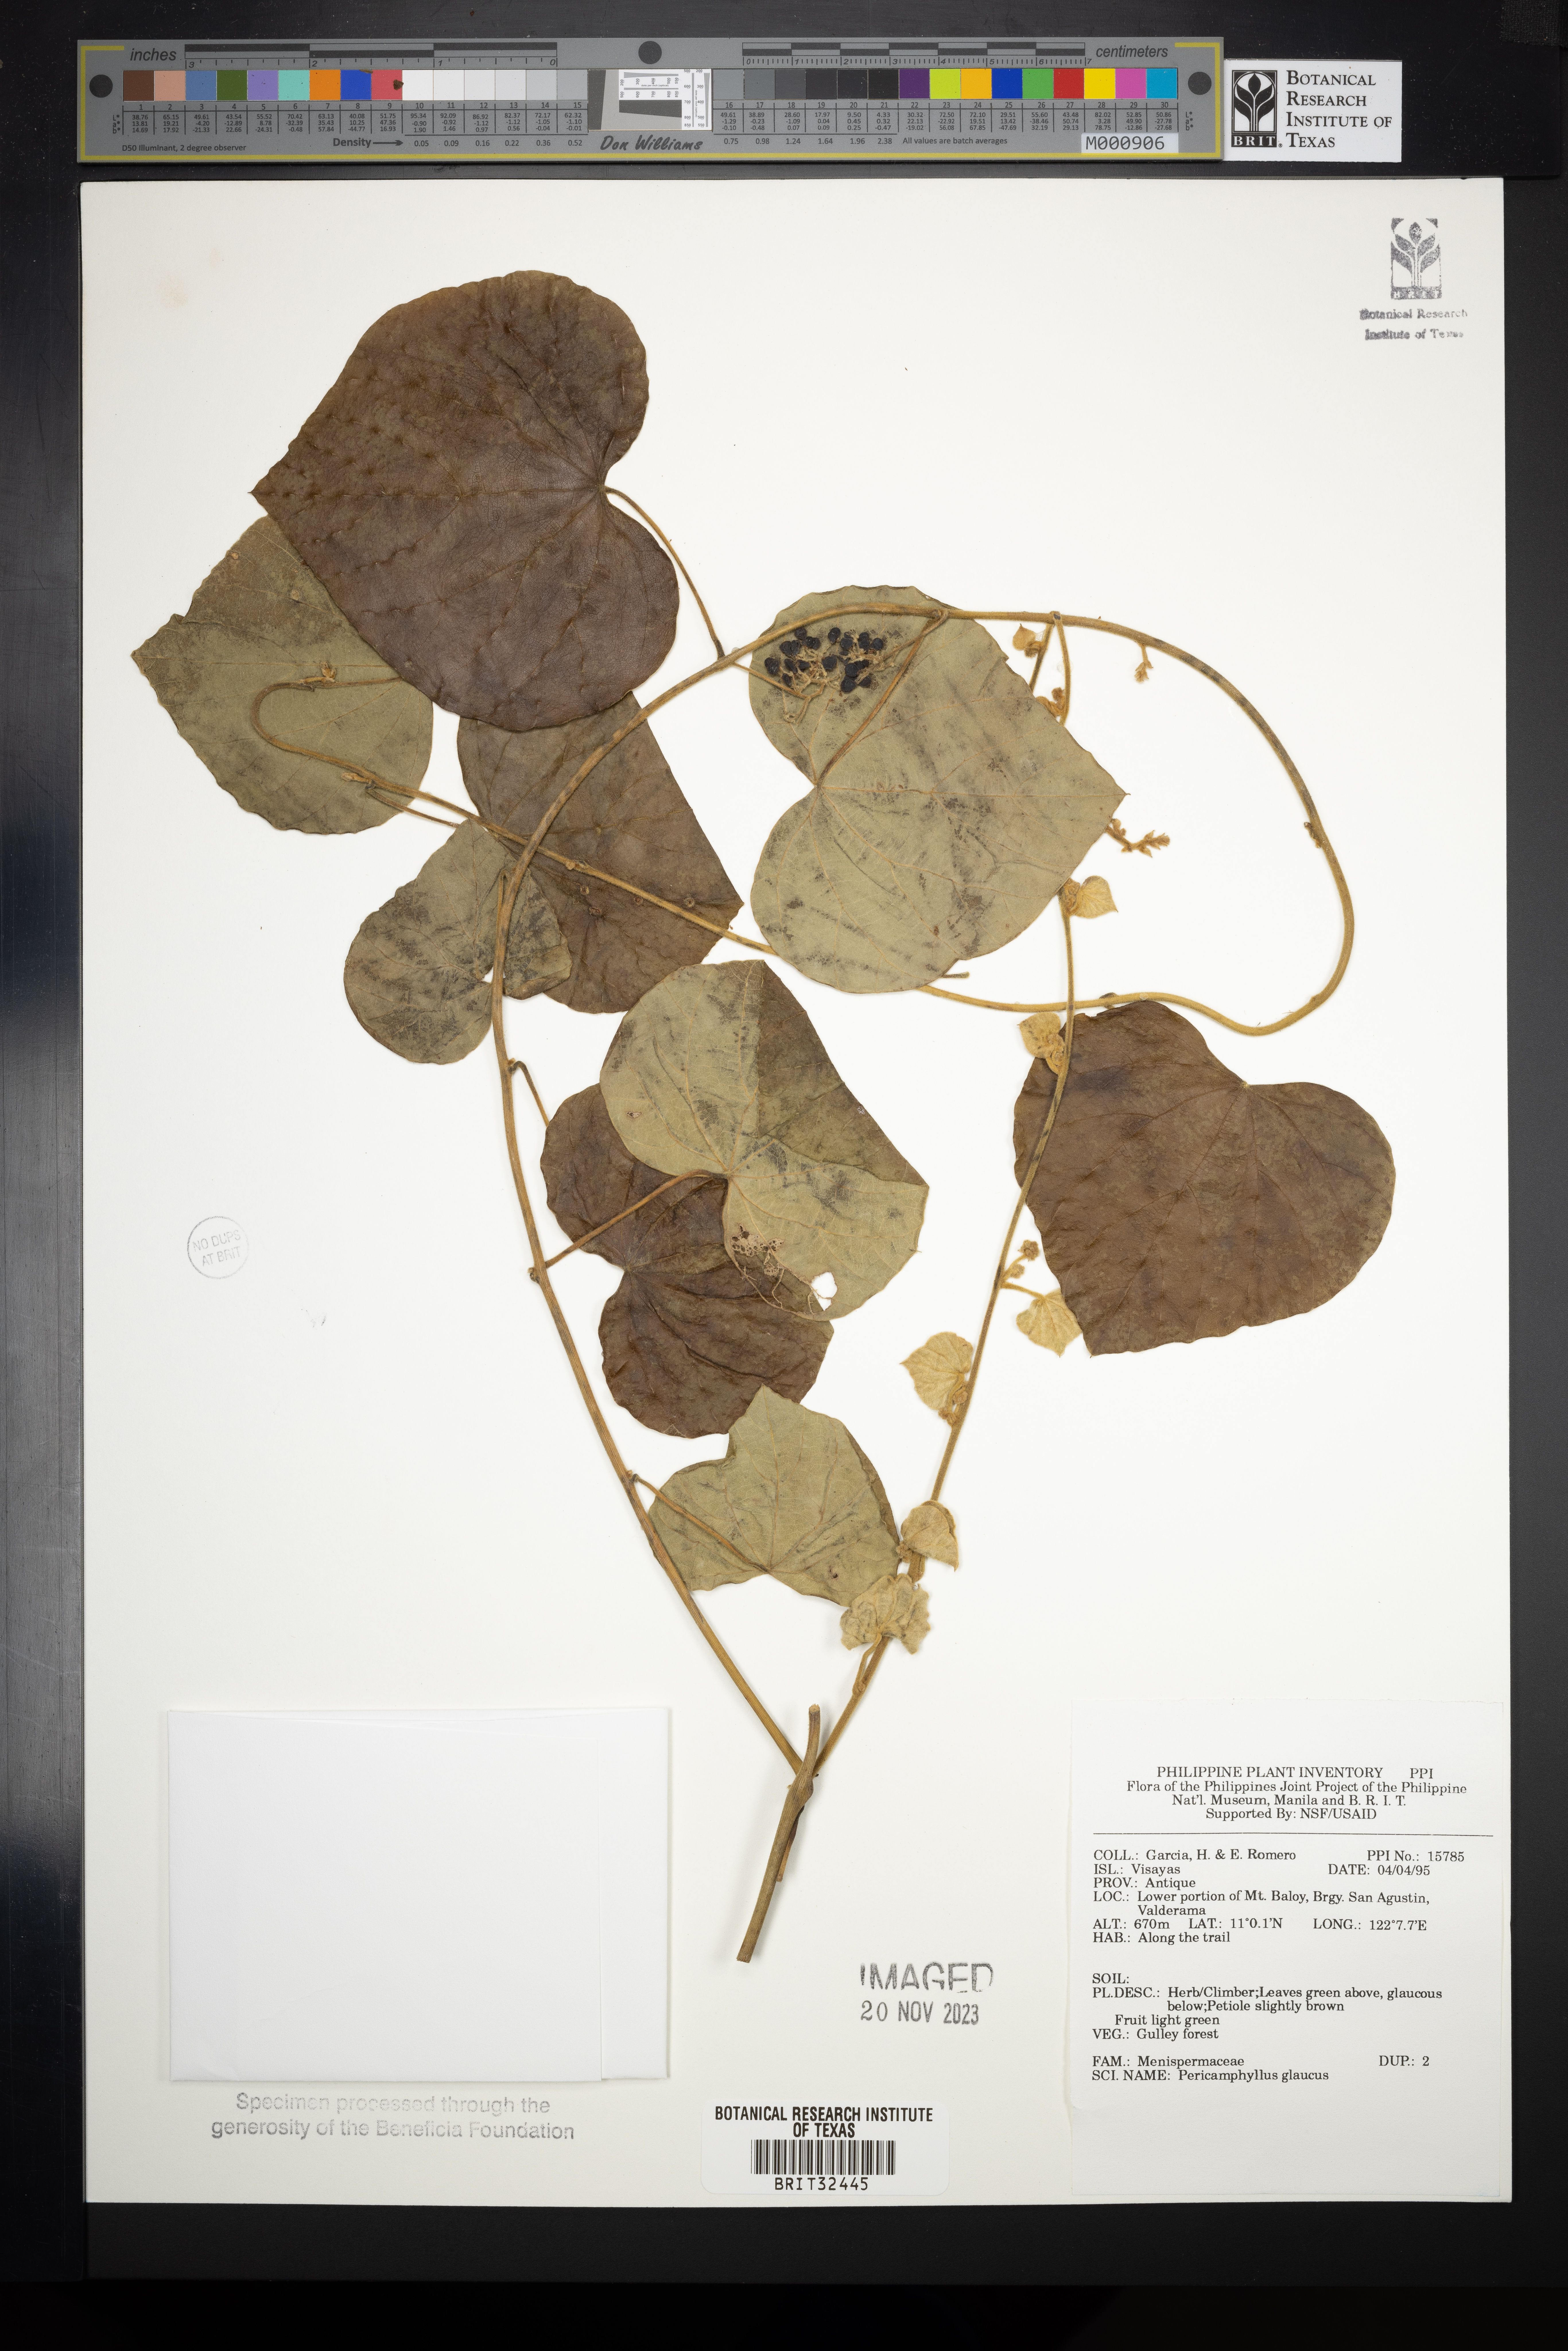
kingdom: Plantae
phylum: Tracheophyta
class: Magnoliopsida
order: Ranunculales
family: Menispermaceae
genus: Pericampylus
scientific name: Pericampylus glaucus
